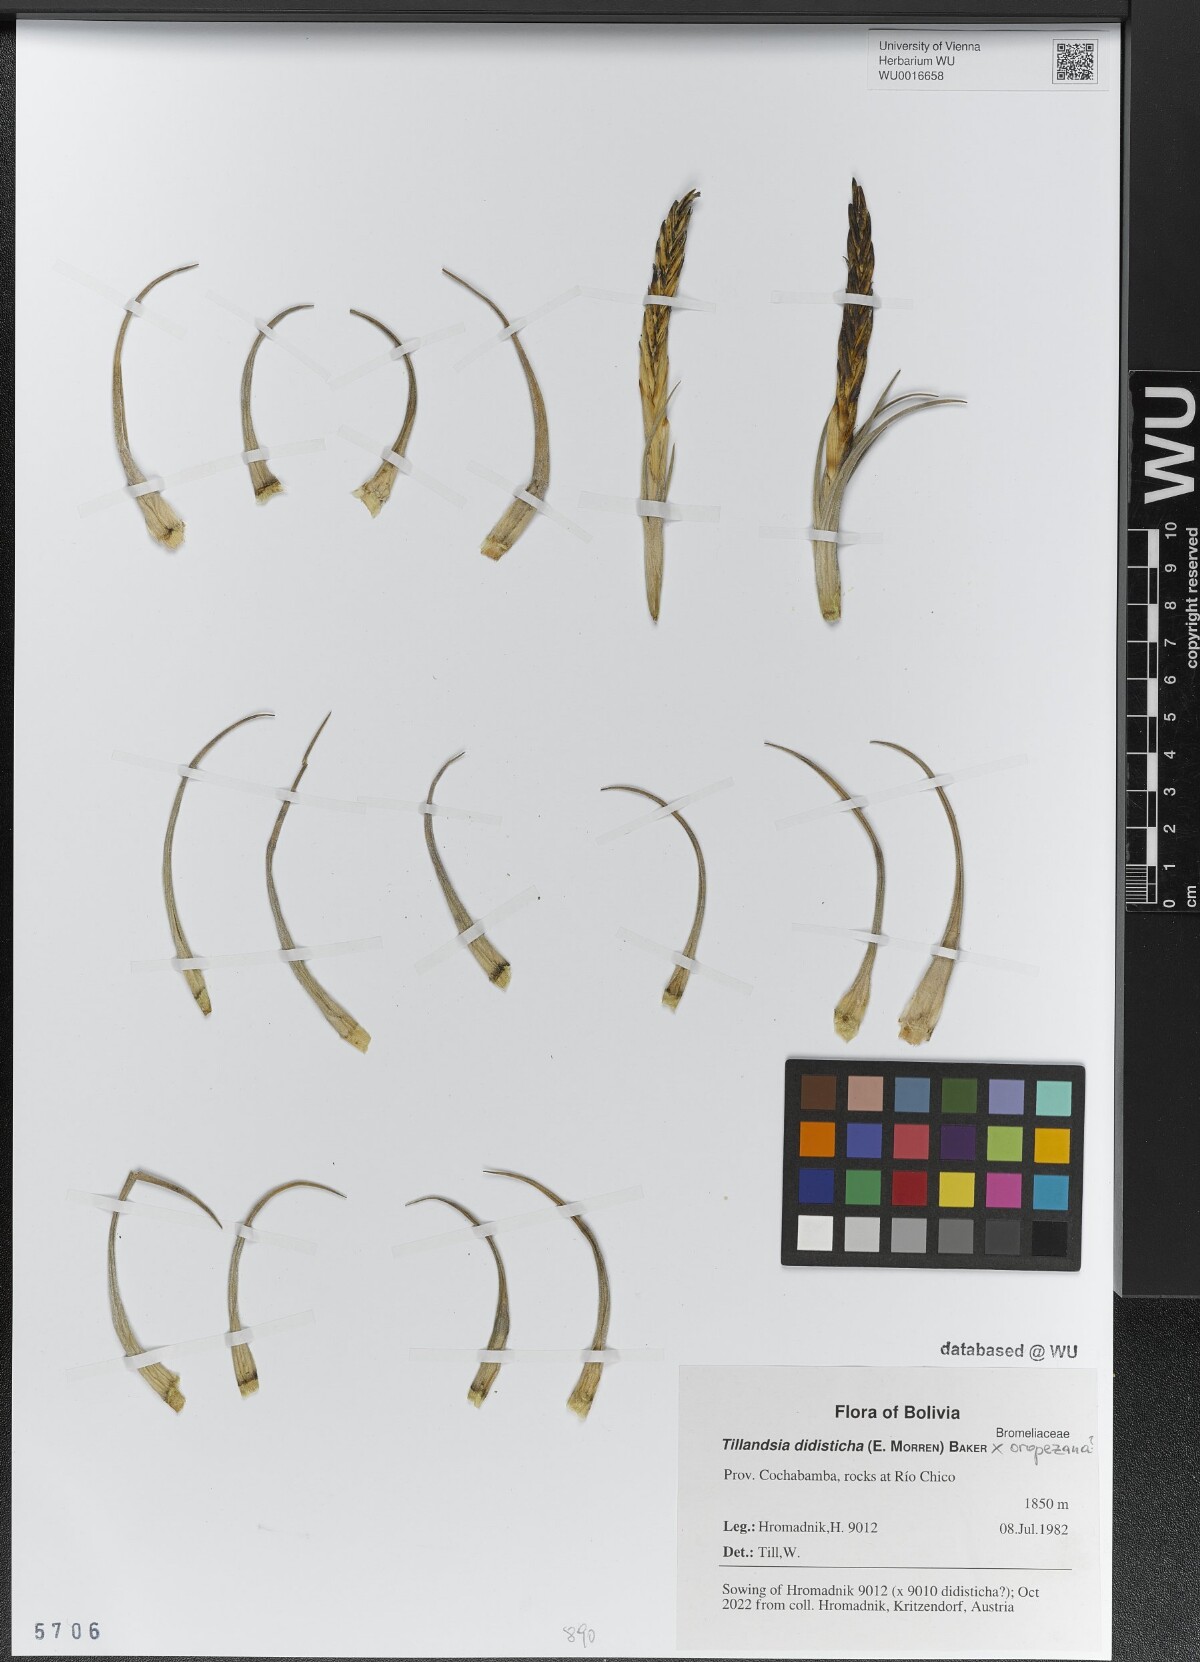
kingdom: Plantae
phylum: Tracheophyta
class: Liliopsida
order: Poales
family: Bromeliaceae
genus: Tillandsia
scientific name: Tillandsia didisticha
